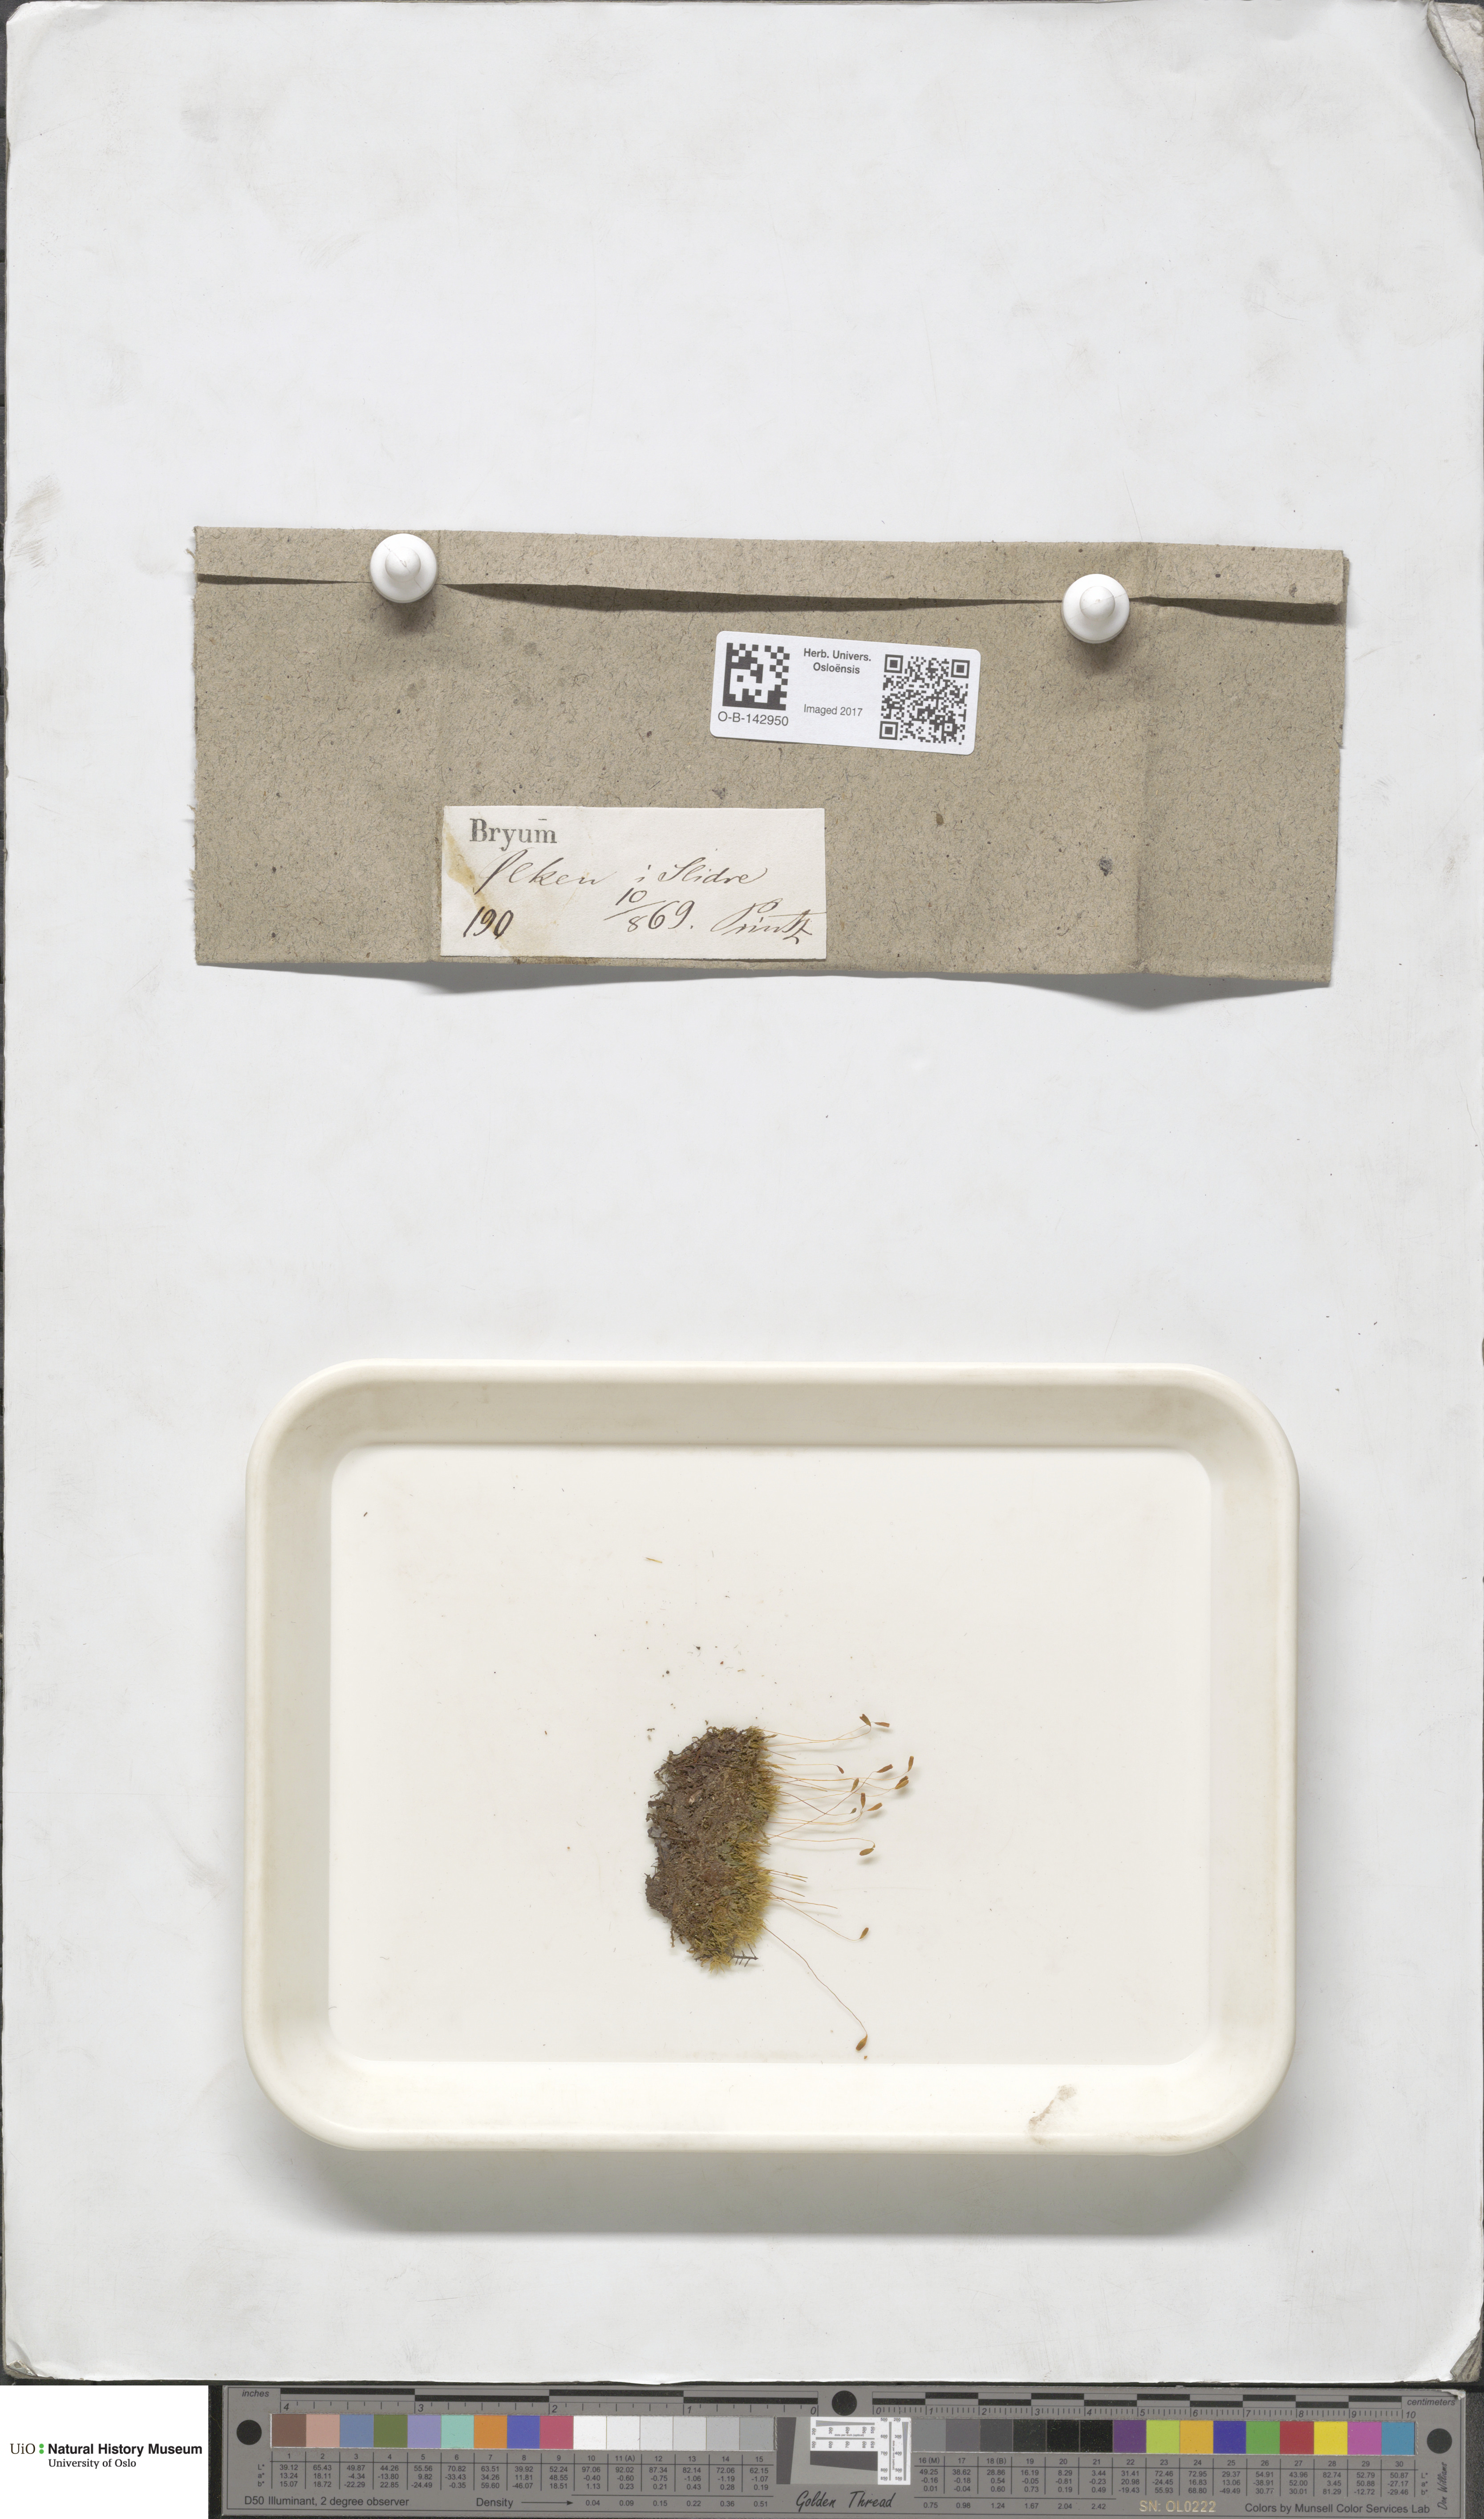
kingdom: Plantae
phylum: Bryophyta
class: Bryopsida
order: Bryales
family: Bryaceae
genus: Bryum
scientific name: Bryum
